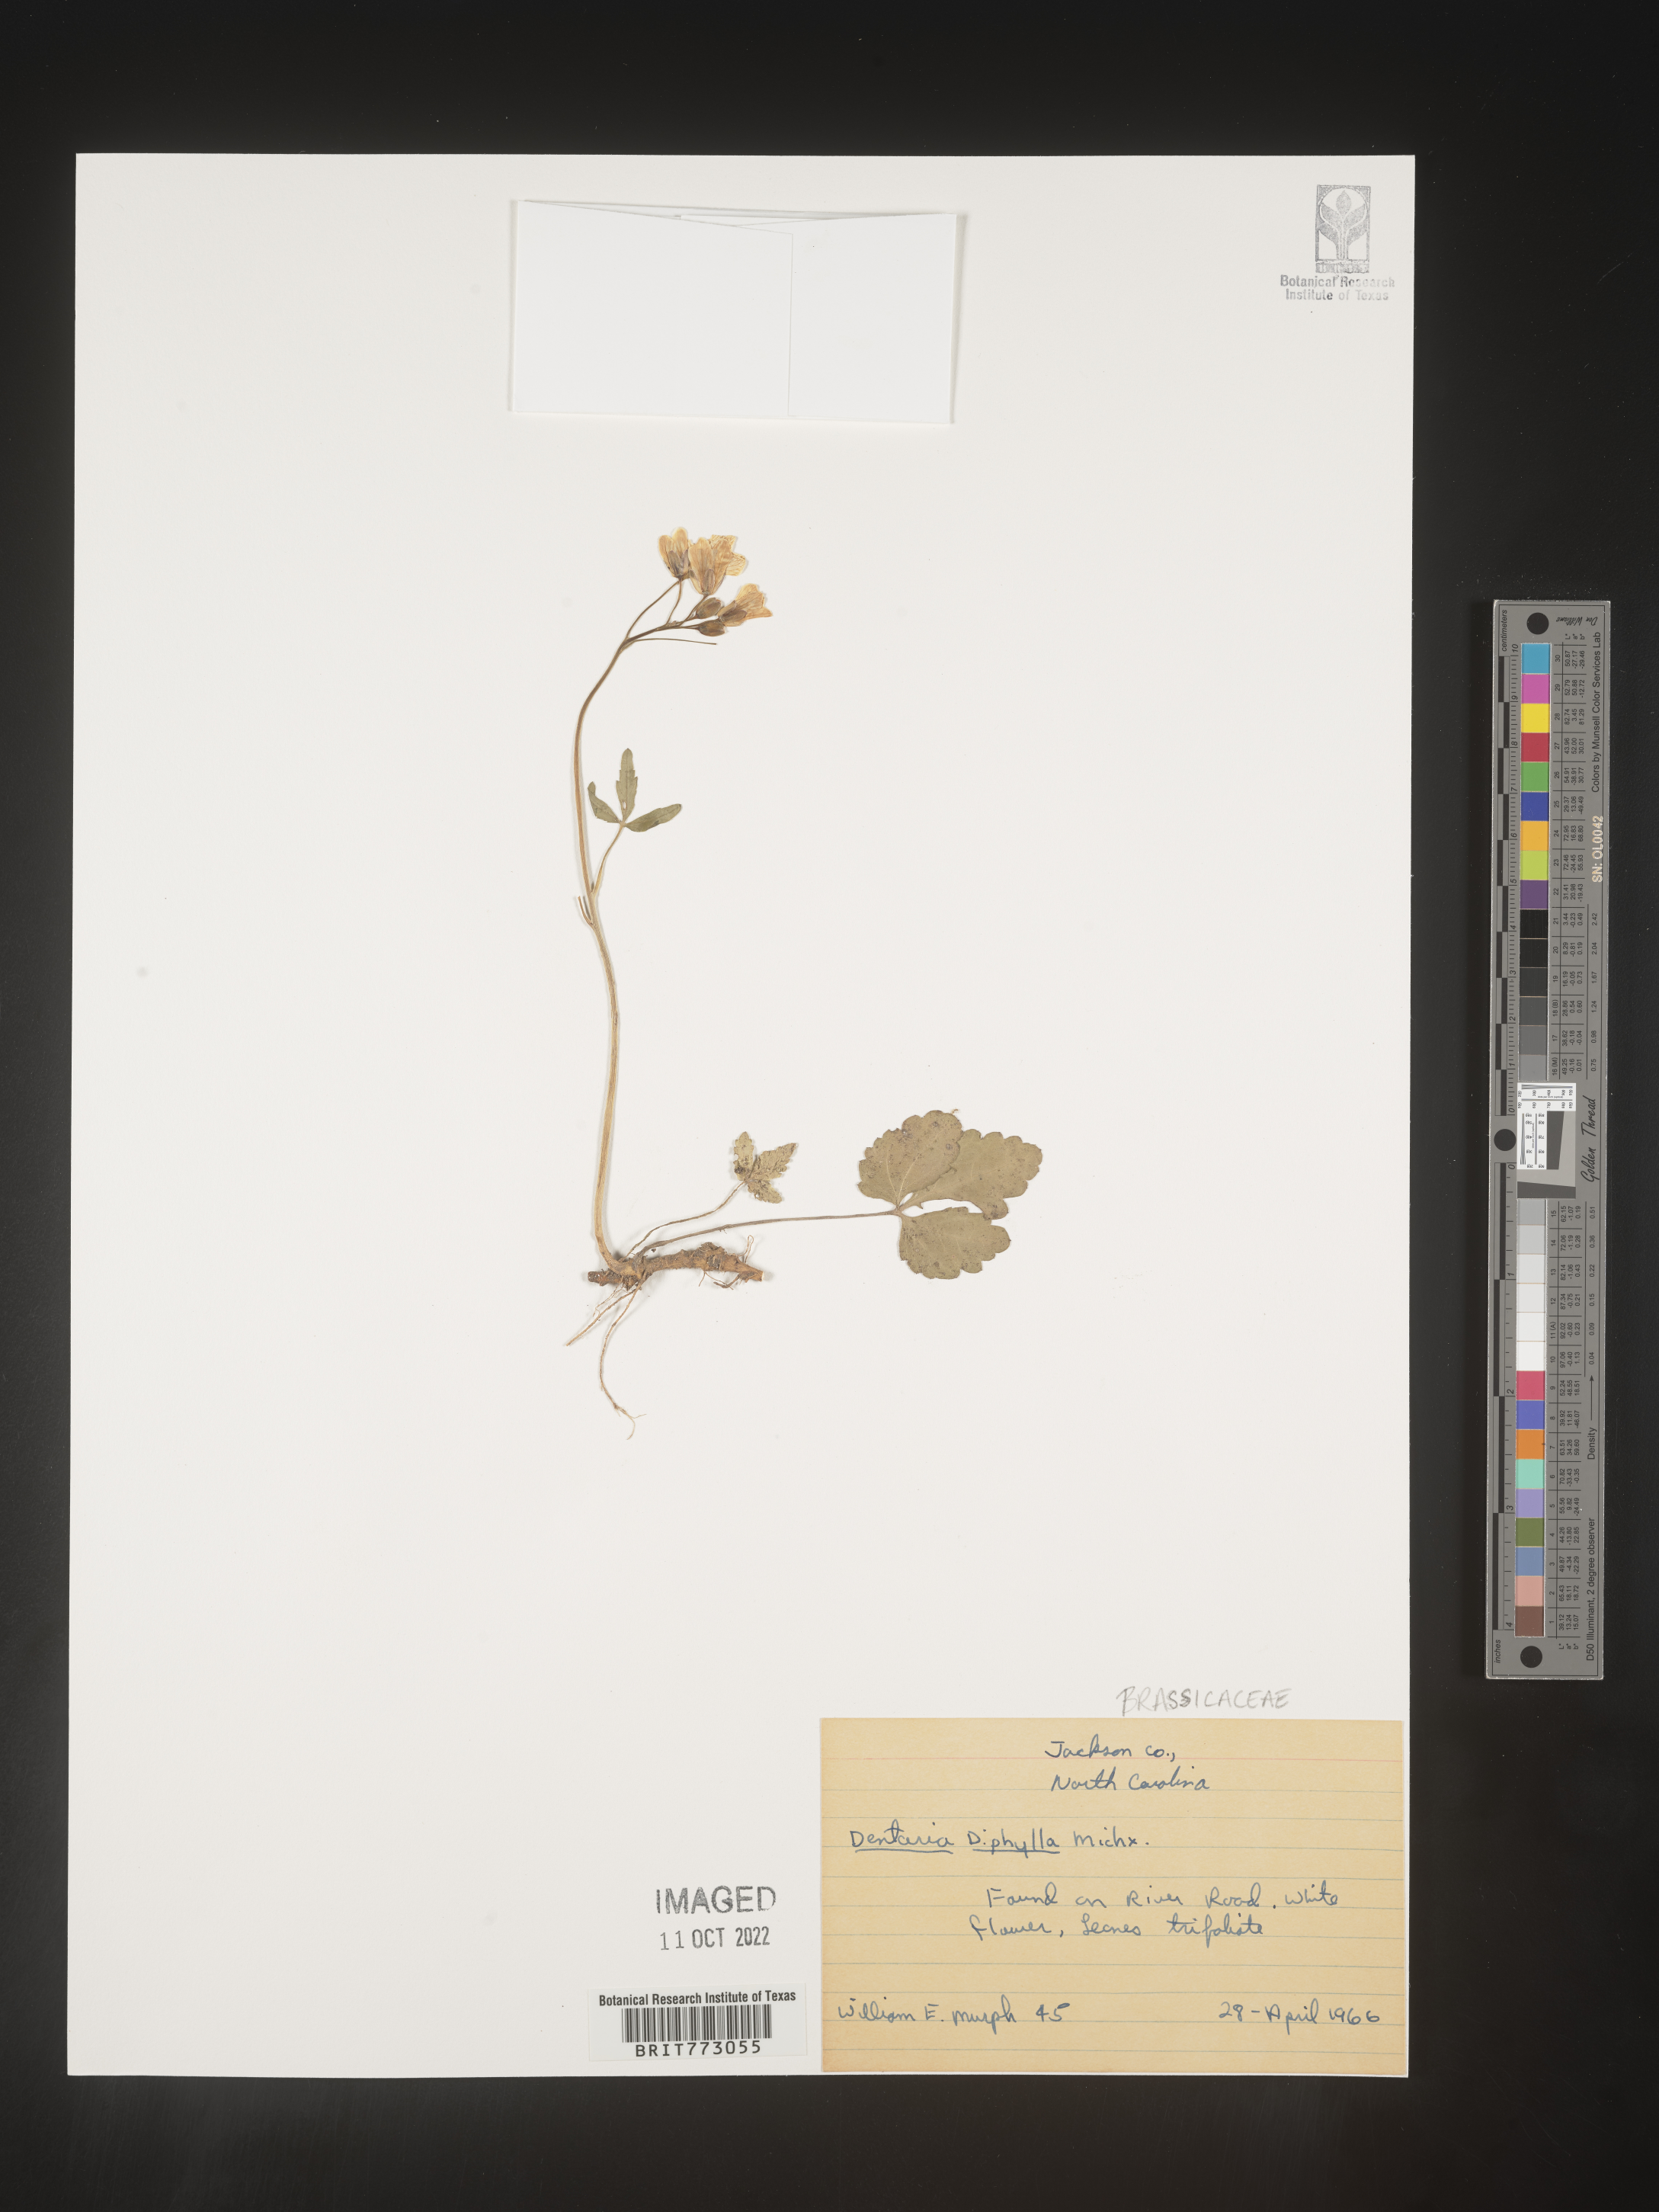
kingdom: Plantae
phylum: Tracheophyta
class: Magnoliopsida
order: Brassicales
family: Brassicaceae
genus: Cardamine
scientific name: Cardamine diphylla
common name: Broad-leaved toothwort
